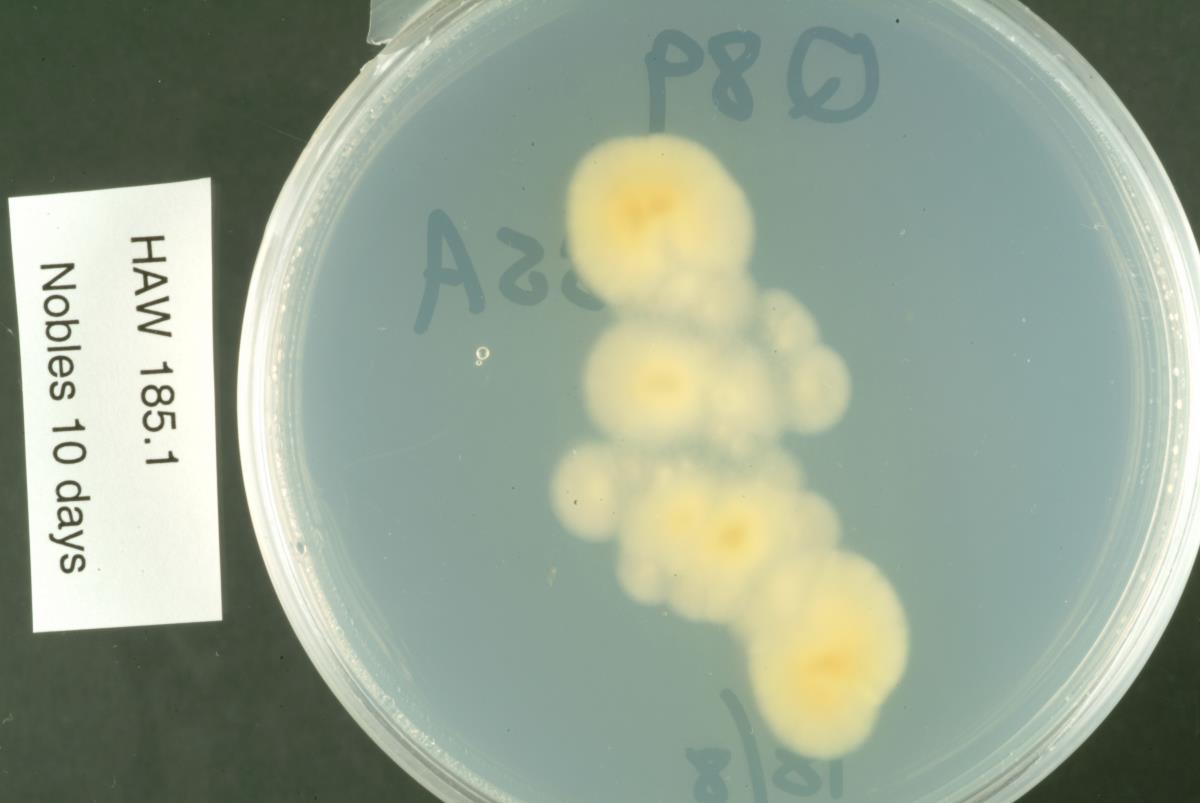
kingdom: Fungi
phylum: Ascomycota
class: Leotiomycetes
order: Rhytismatales
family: Rhytismataceae
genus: Lophodermium
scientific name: Lophodermium
